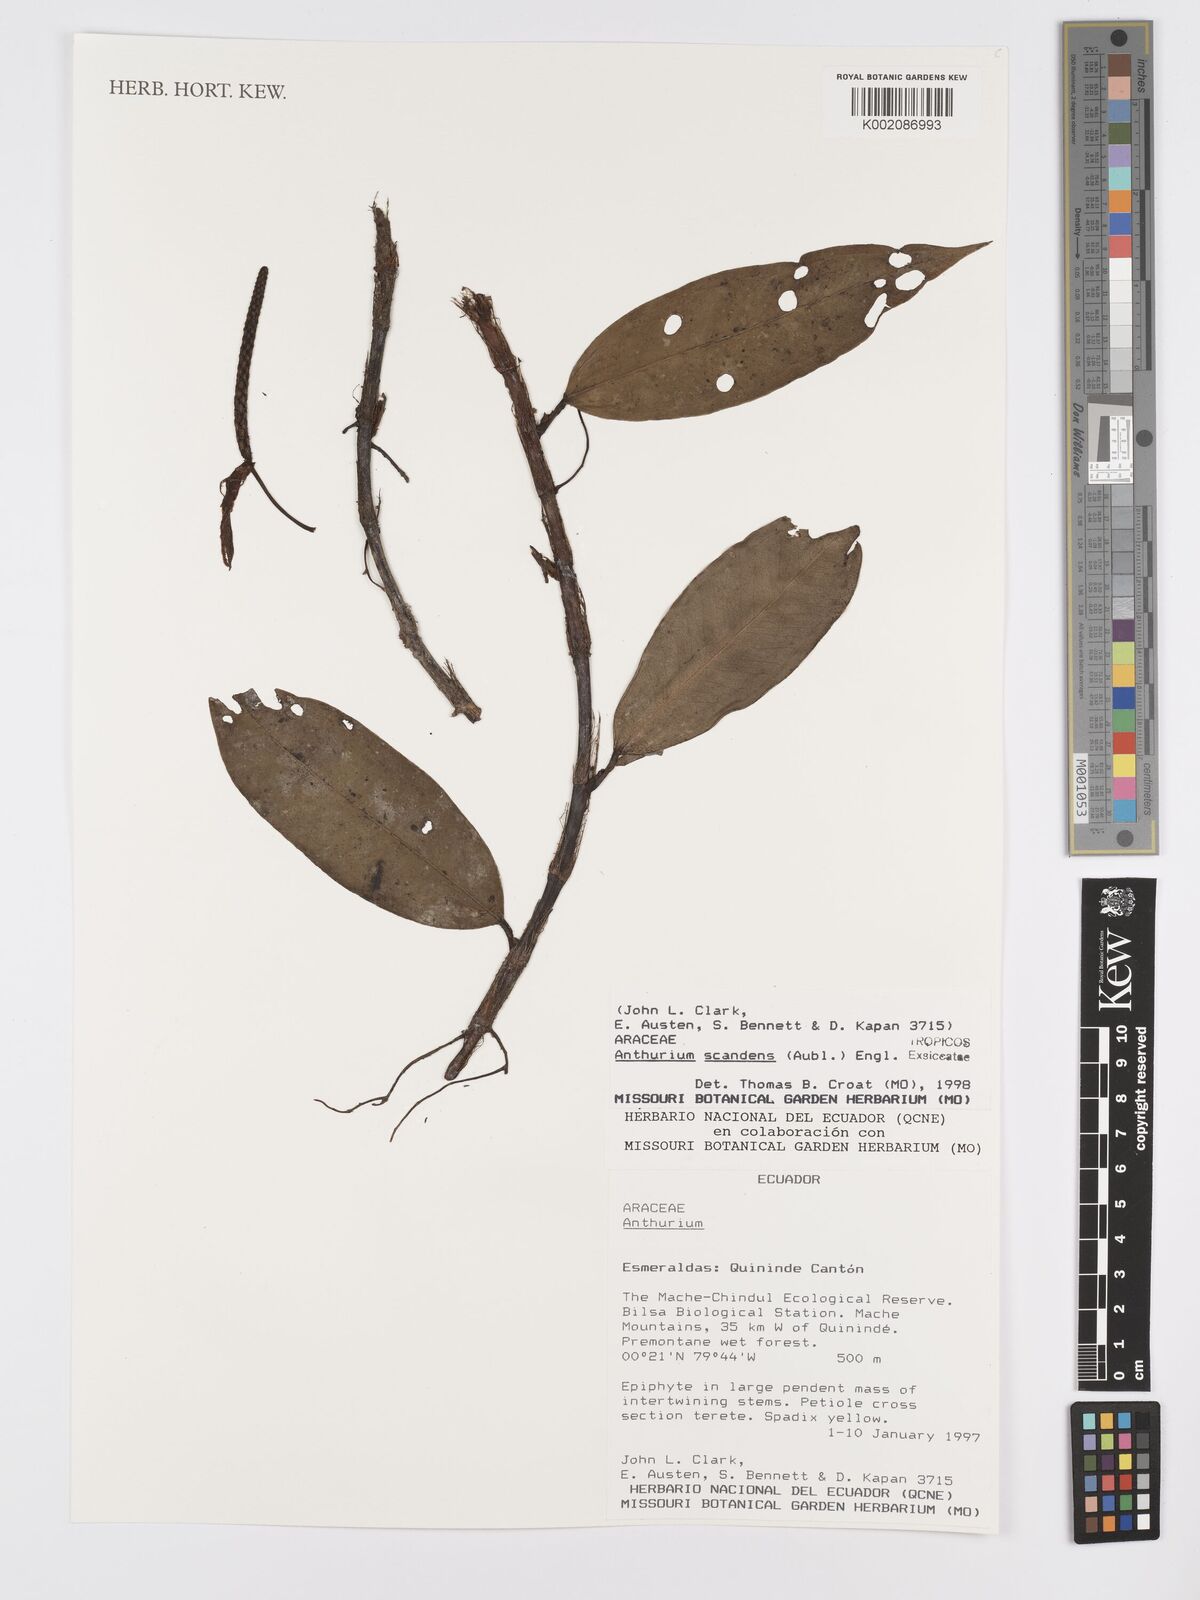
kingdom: Plantae
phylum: Tracheophyta
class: Liliopsida
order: Alismatales
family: Araceae
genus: Anthurium
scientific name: Anthurium scandens
